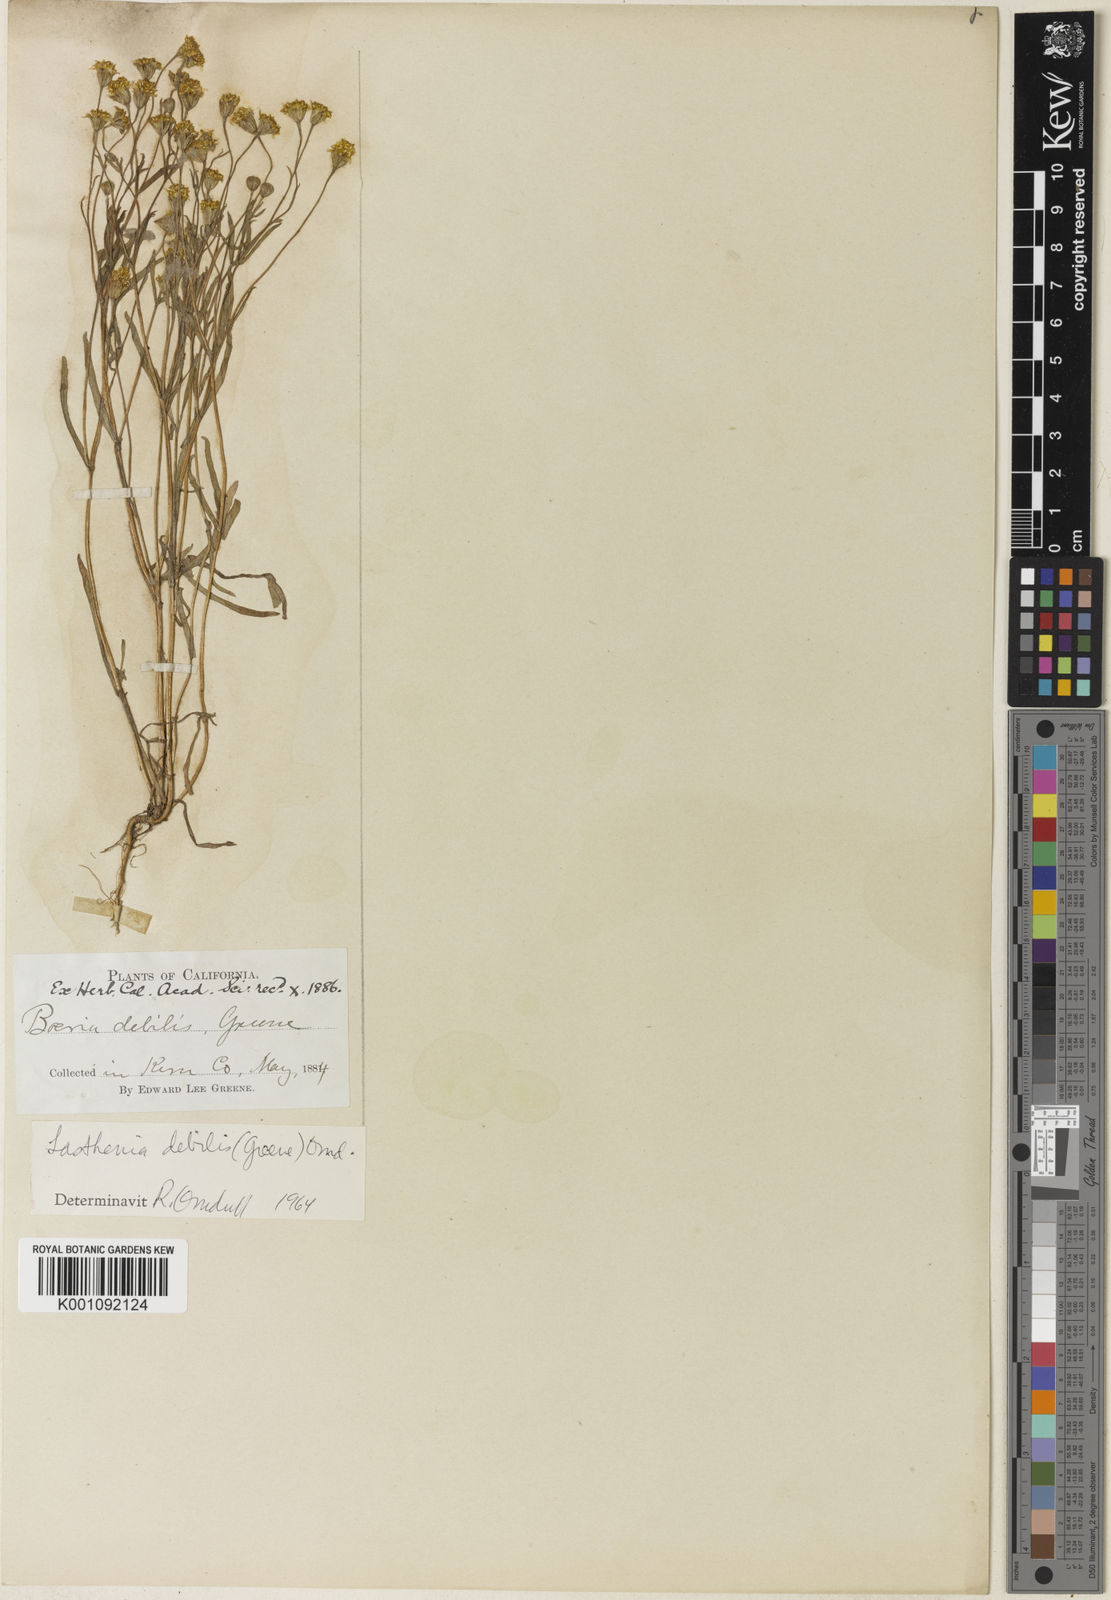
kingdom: Plantae
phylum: Tracheophyta
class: Magnoliopsida
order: Asterales
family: Asteraceae
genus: Lasthenia
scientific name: Lasthenia debilis
